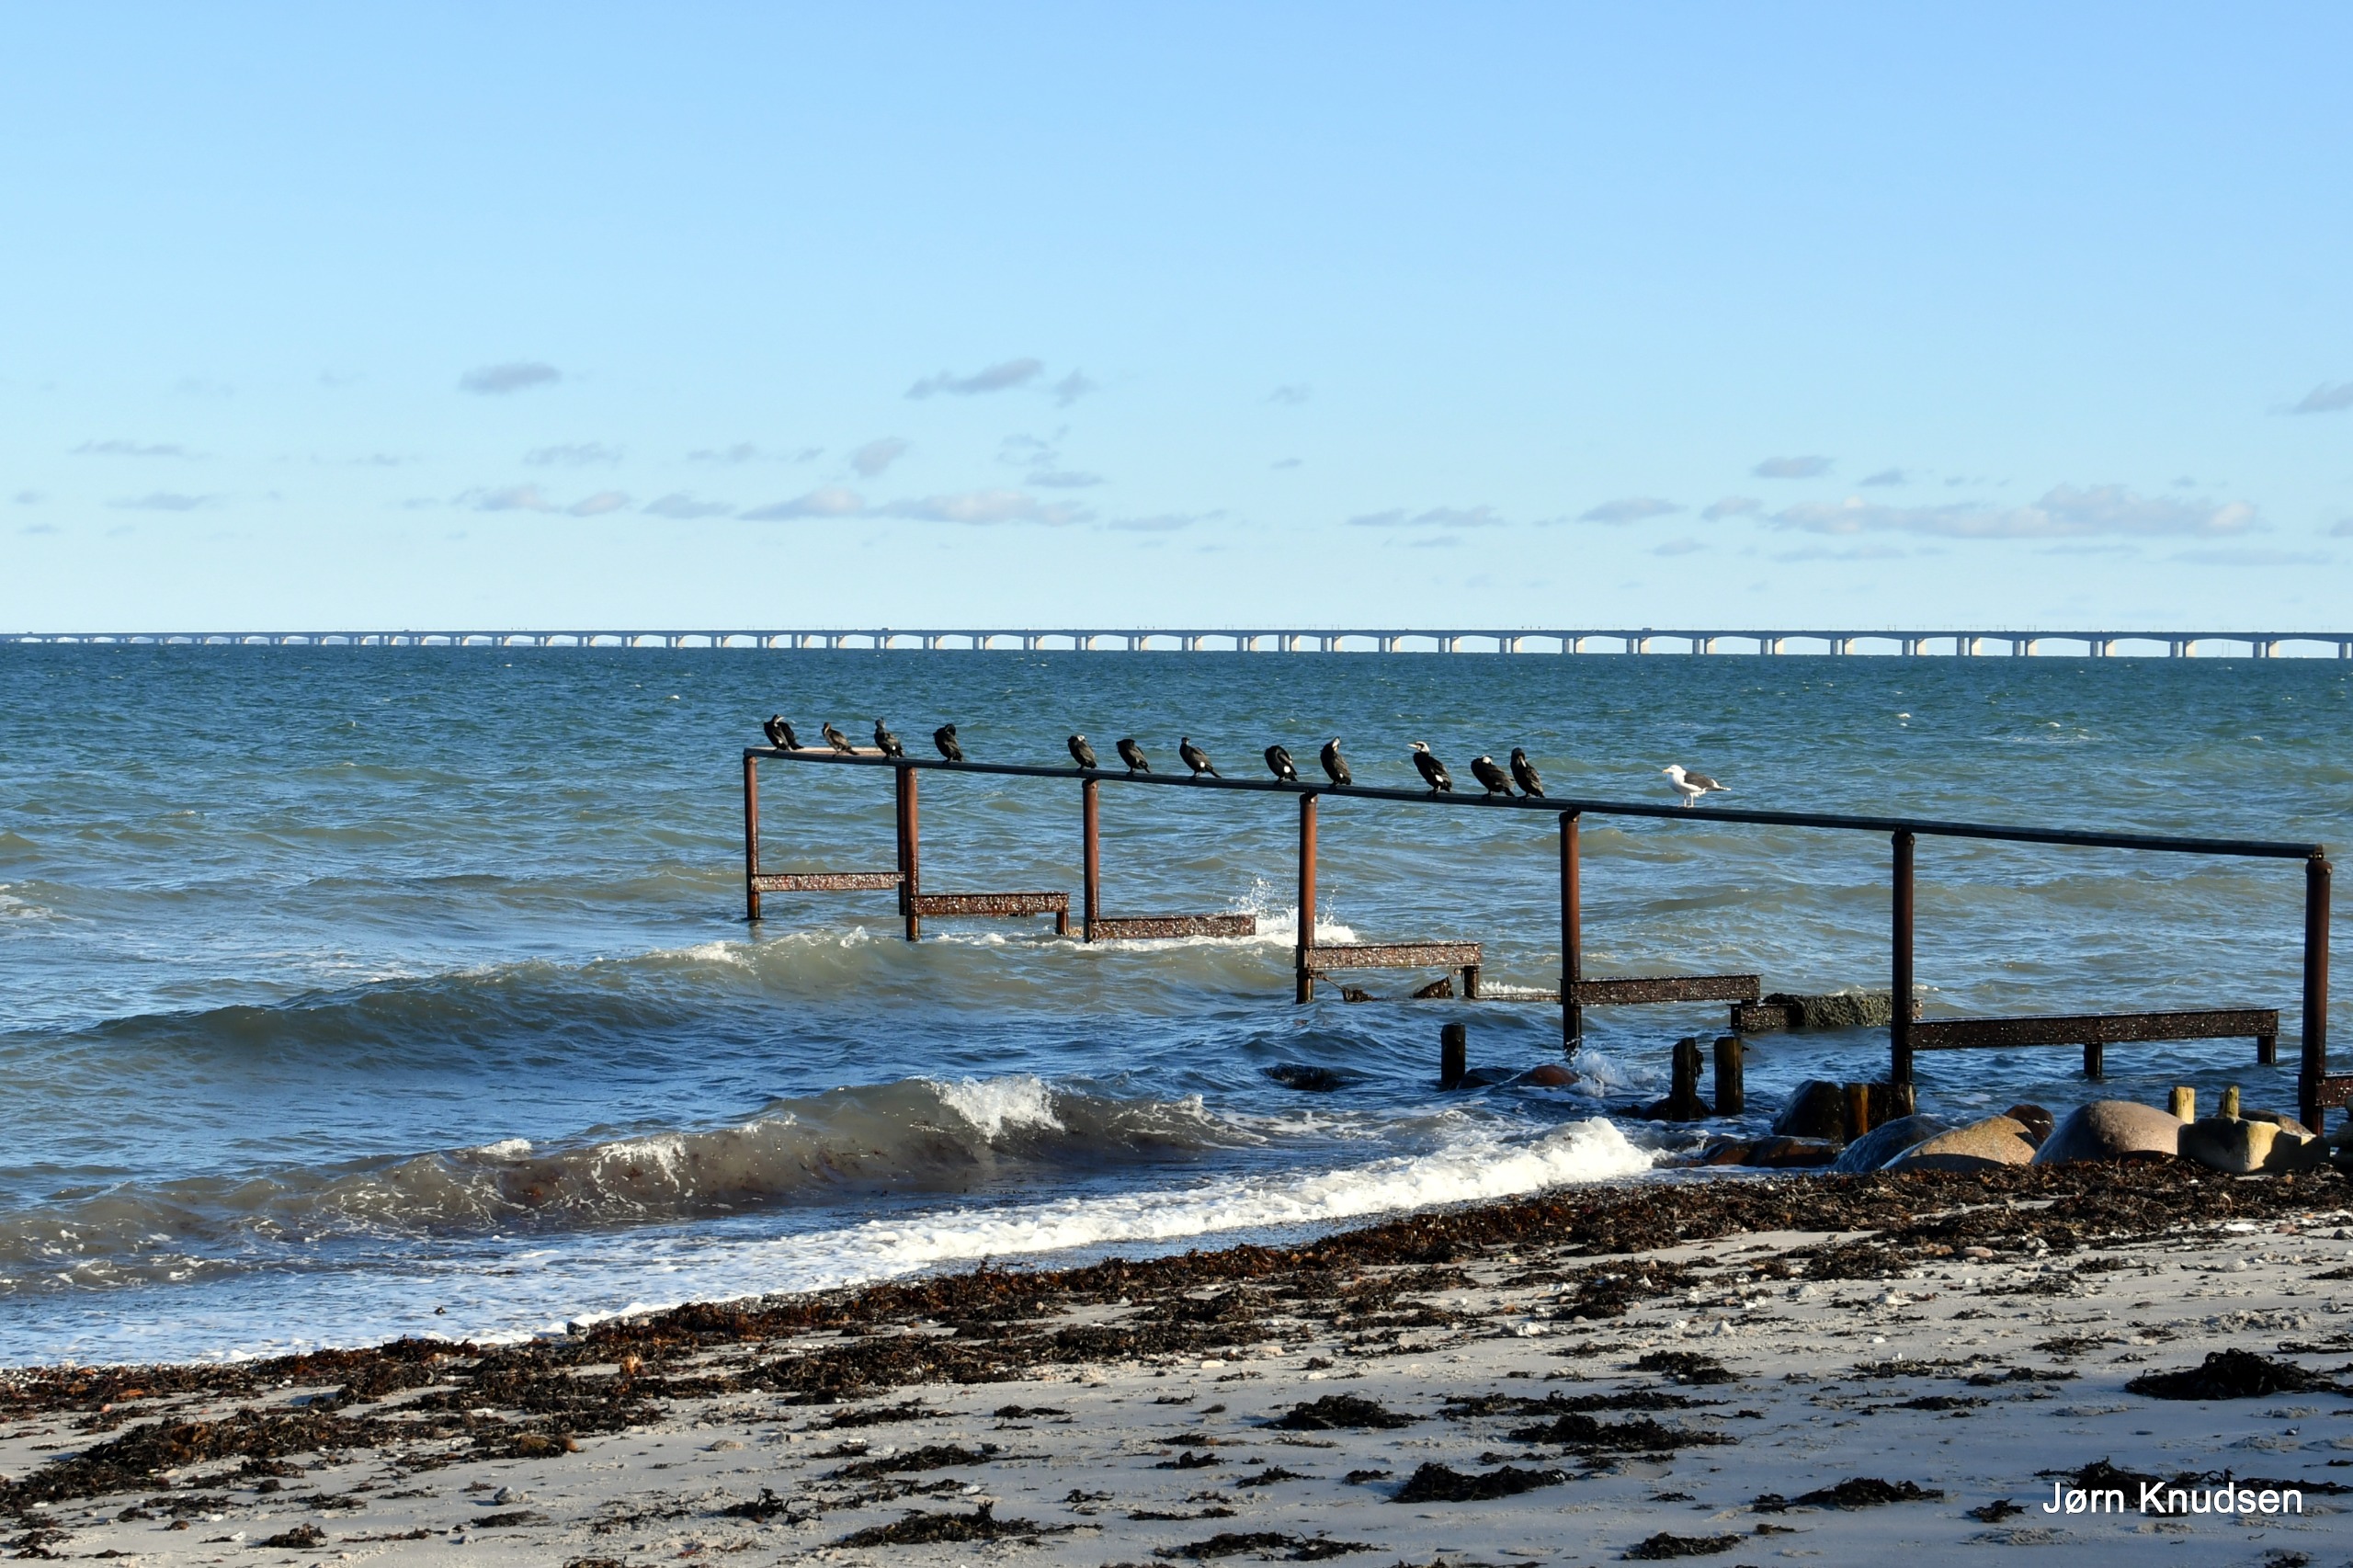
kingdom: Animalia
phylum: Chordata
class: Aves
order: Suliformes
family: Phalacrocoracidae
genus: Phalacrocorax
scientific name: Phalacrocorax carbo
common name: Skarv
